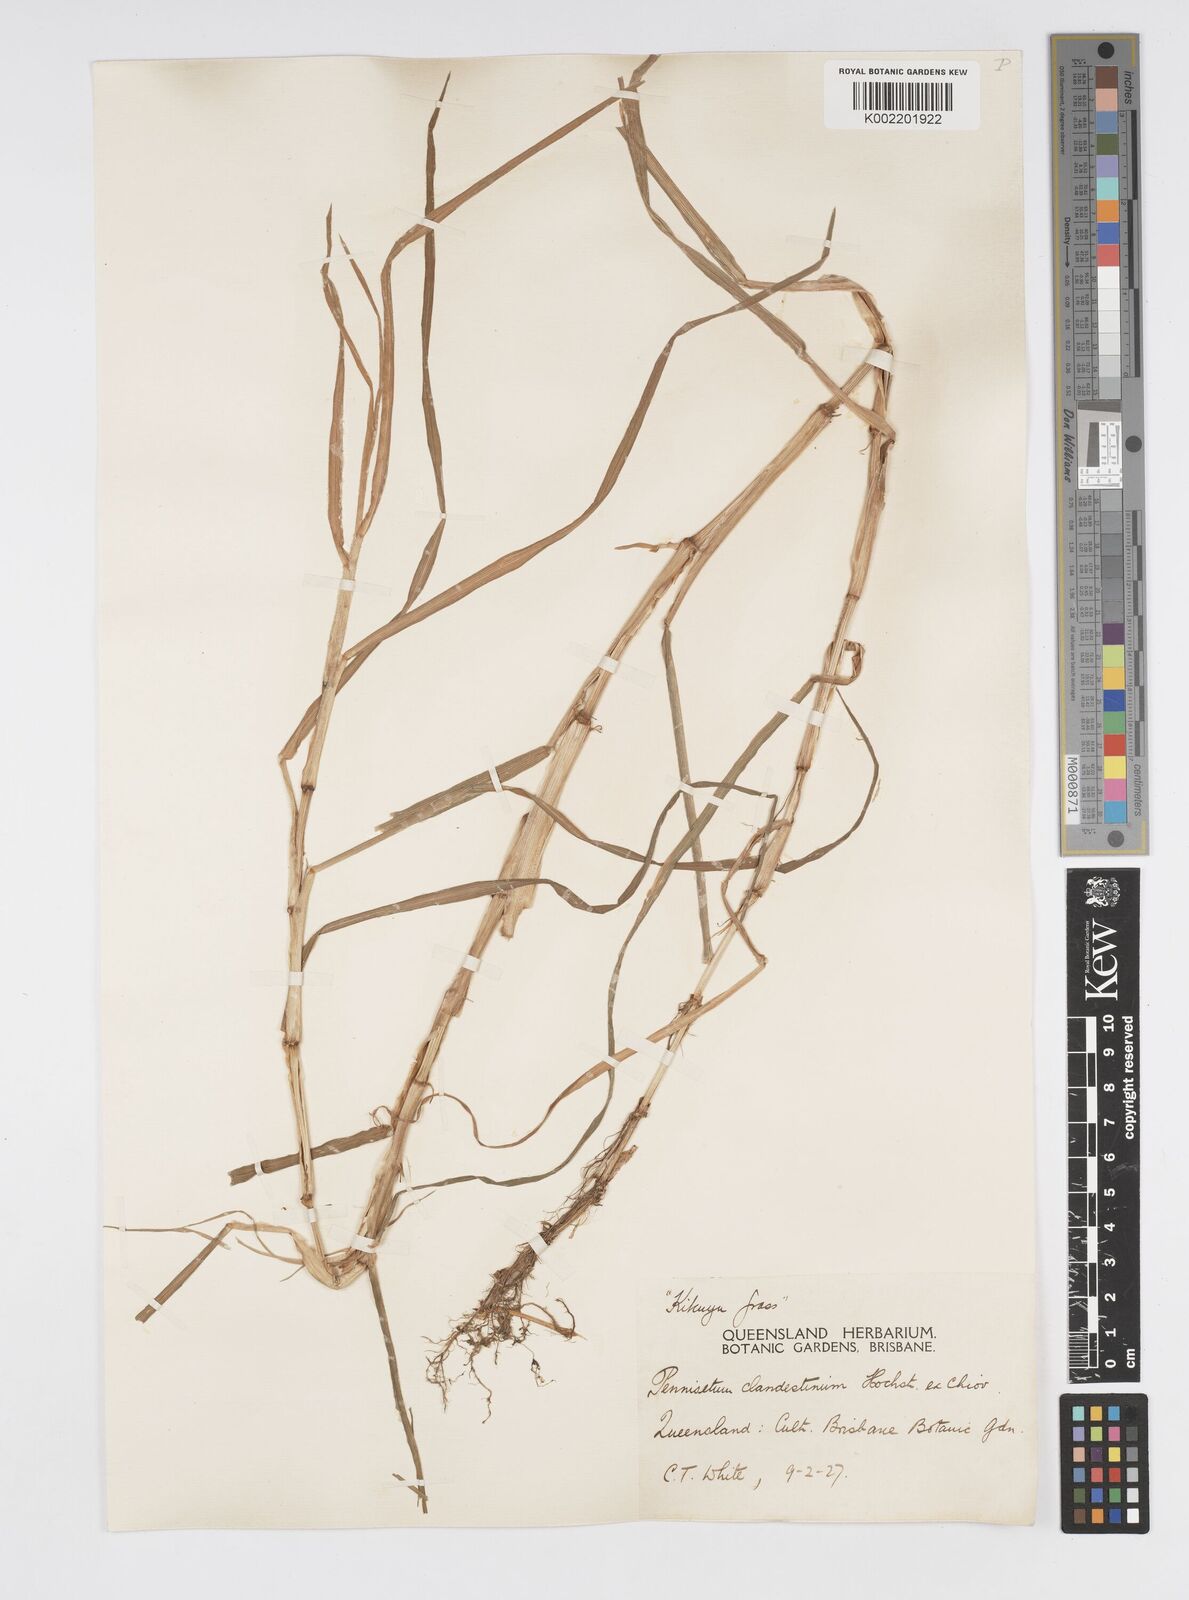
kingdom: Plantae
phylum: Tracheophyta
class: Liliopsida
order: Poales
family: Poaceae
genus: Cenchrus
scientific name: Cenchrus clandestinus
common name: Kikuyugrass
